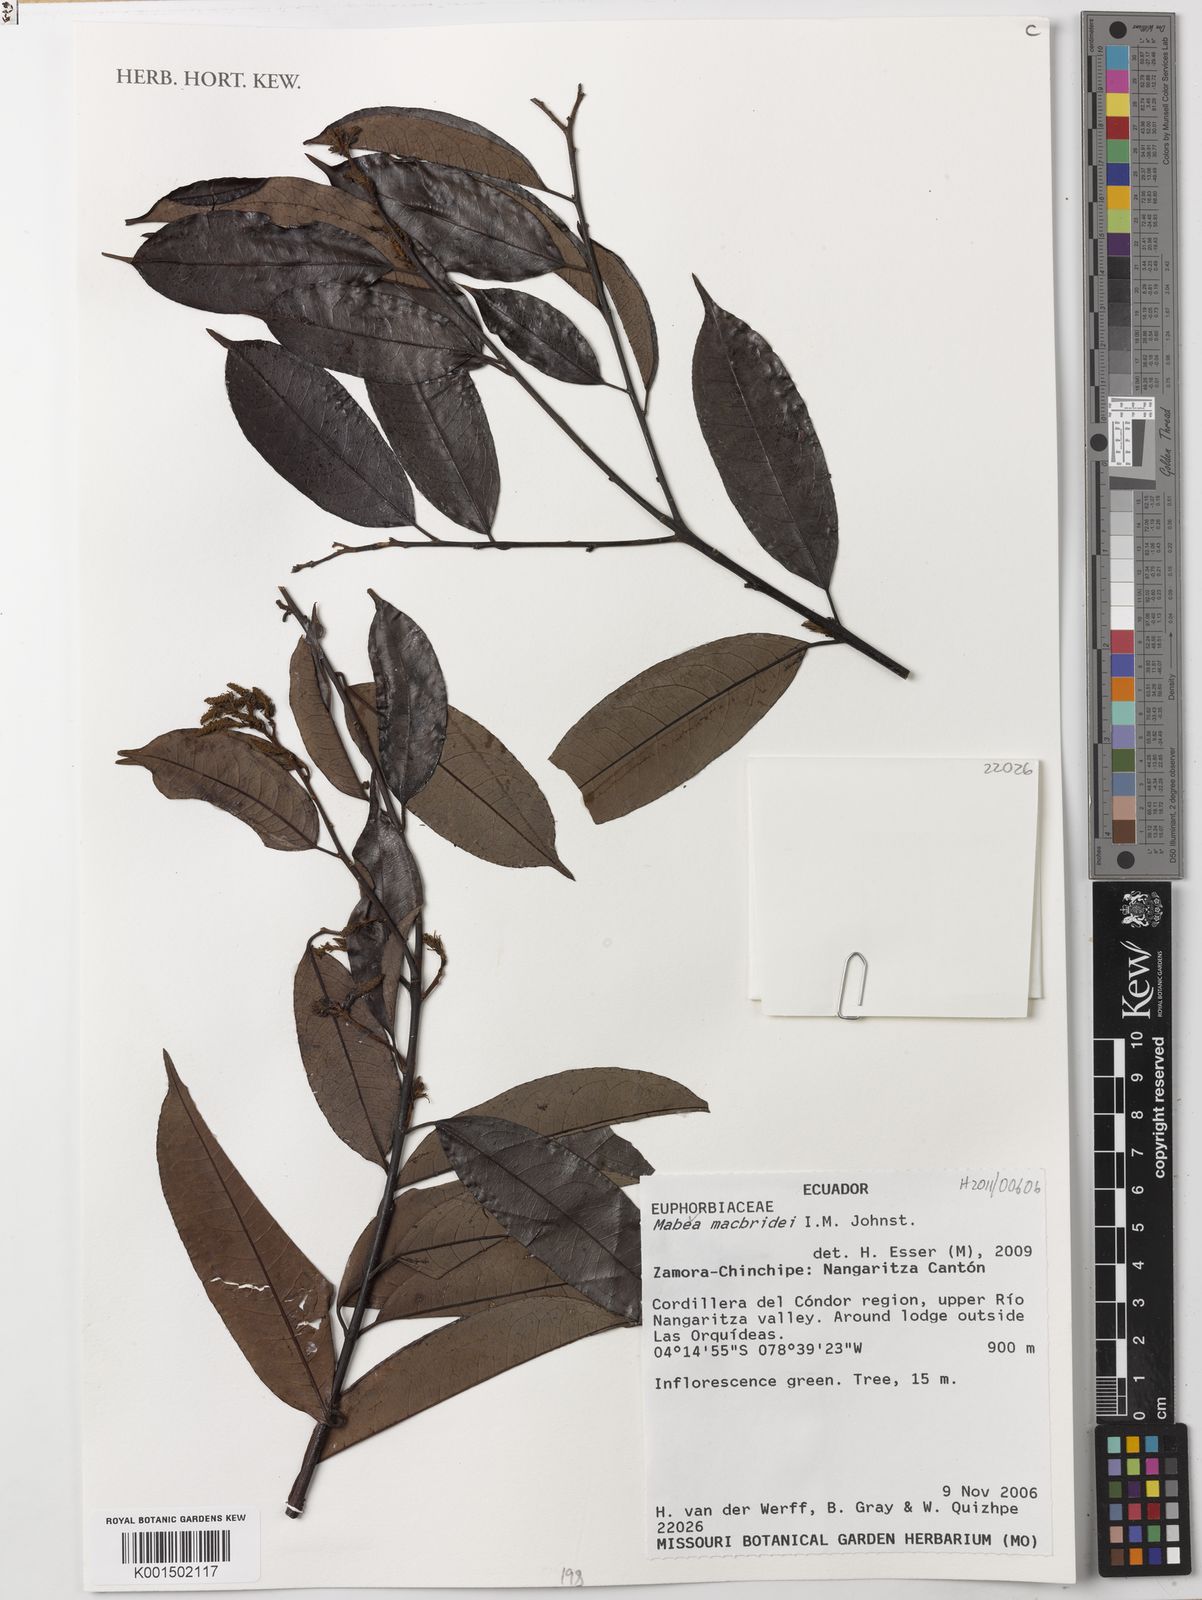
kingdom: Plantae
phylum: Tracheophyta
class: Magnoliopsida
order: Malpighiales
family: Euphorbiaceae
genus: Mabea
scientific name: Mabea macbridei
